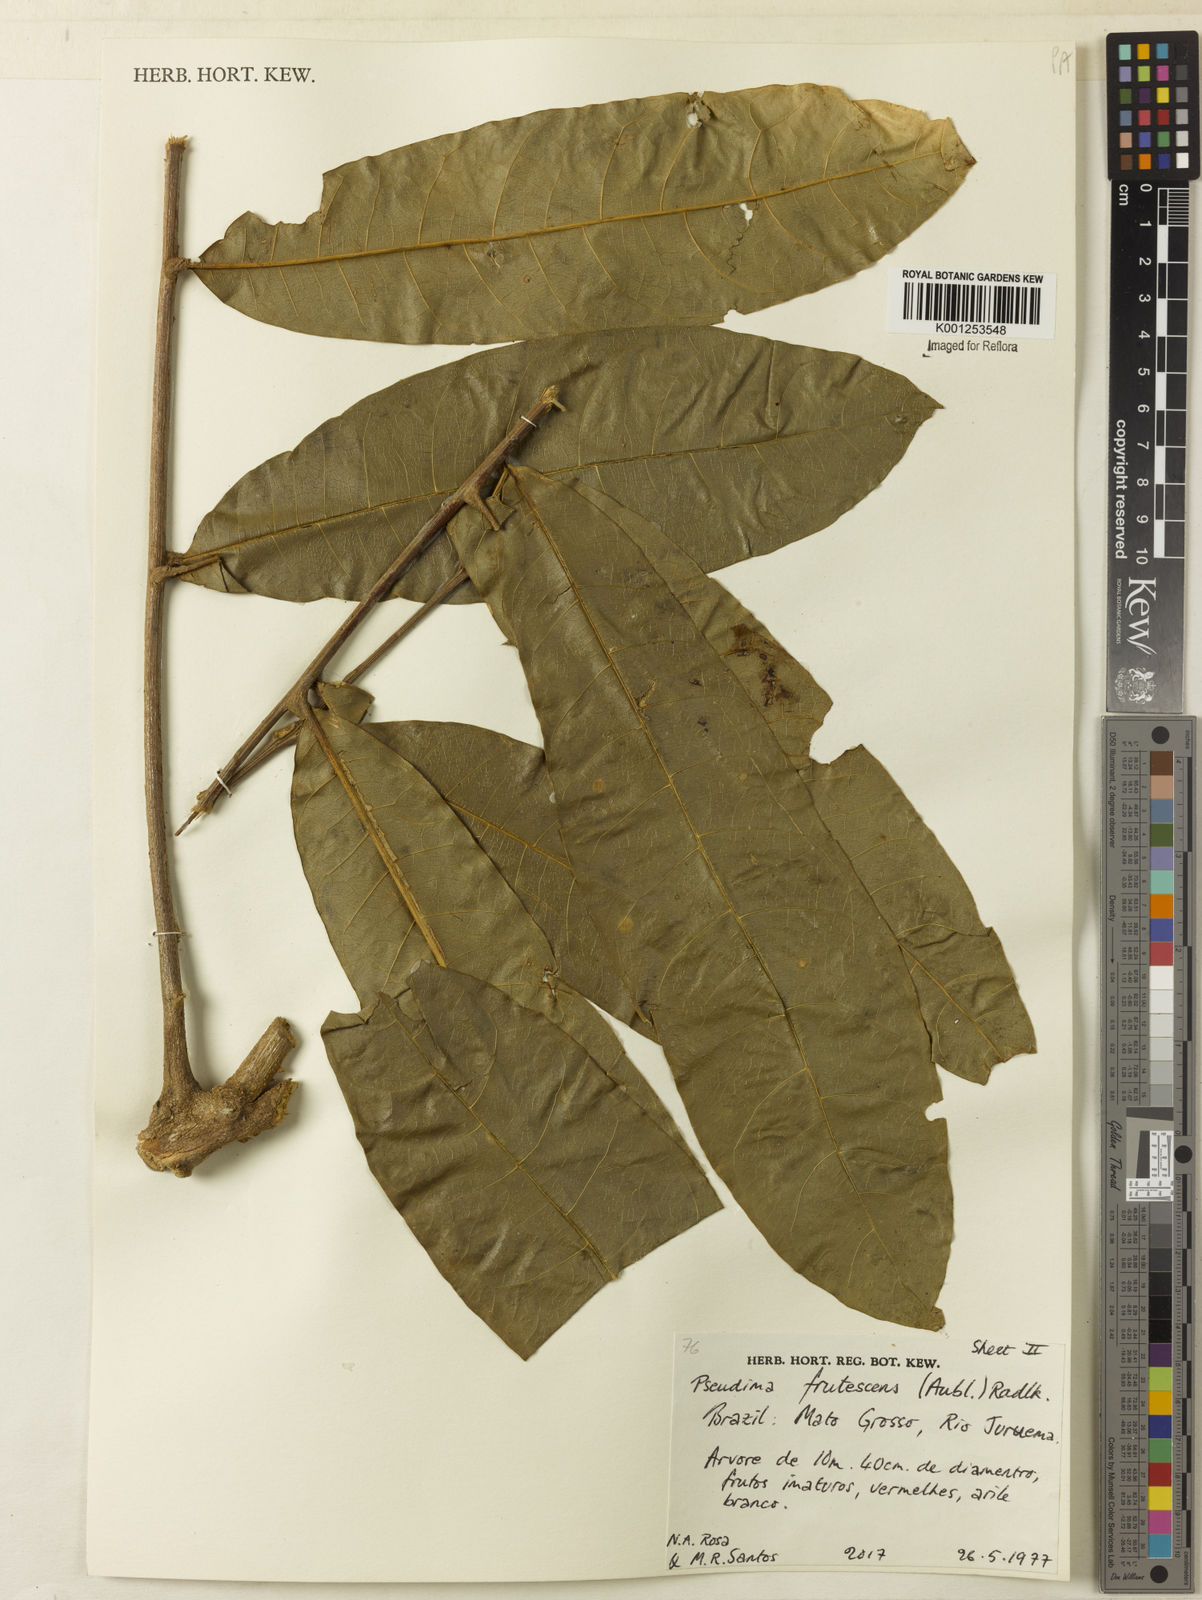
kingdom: Plantae
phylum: Tracheophyta
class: Magnoliopsida
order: Sapindales
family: Sapindaceae
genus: Pseudima
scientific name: Pseudima frutescens
